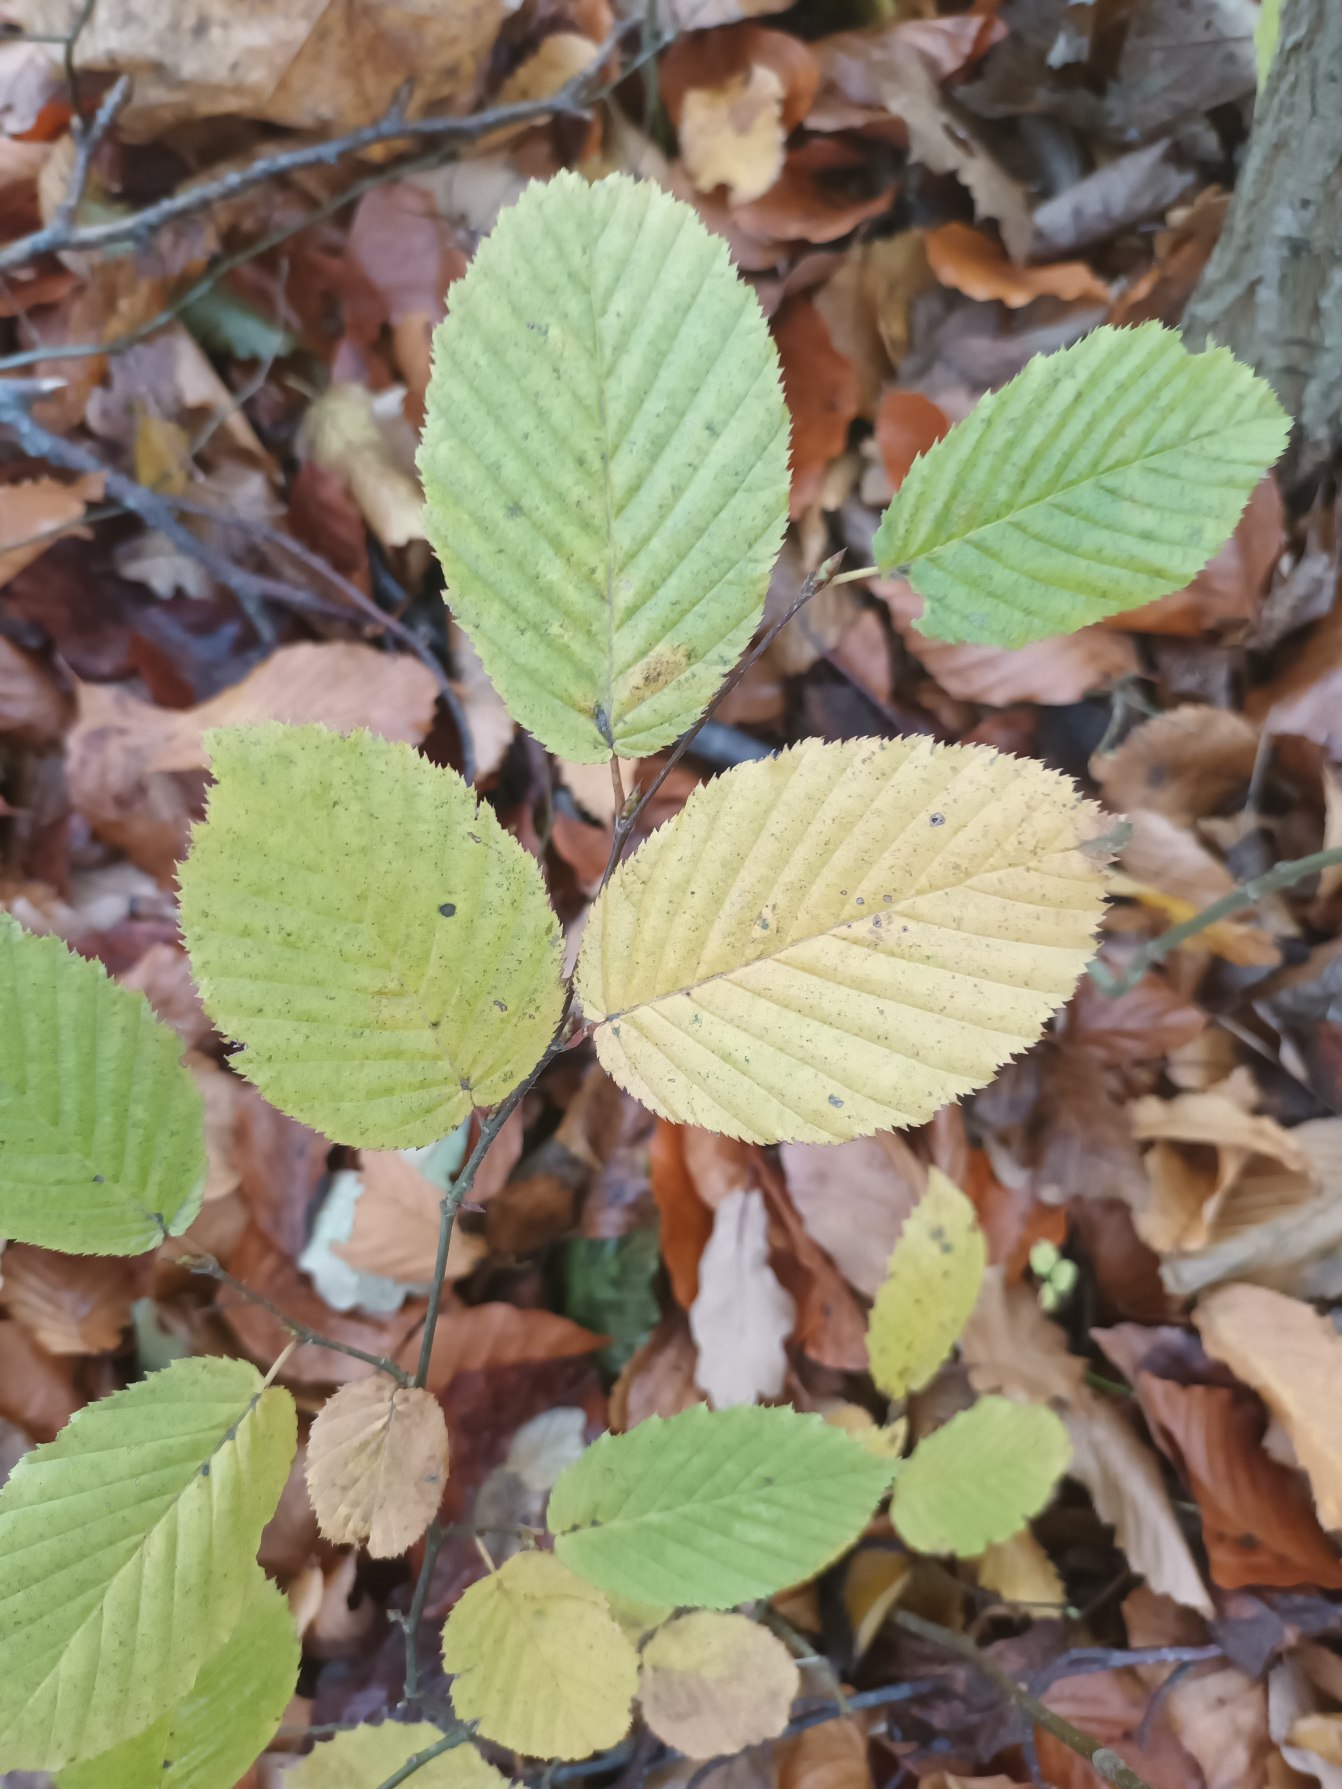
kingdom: Plantae
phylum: Tracheophyta
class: Magnoliopsida
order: Fagales
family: Betulaceae
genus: Carpinus
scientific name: Carpinus betulus
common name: Avnbøg
